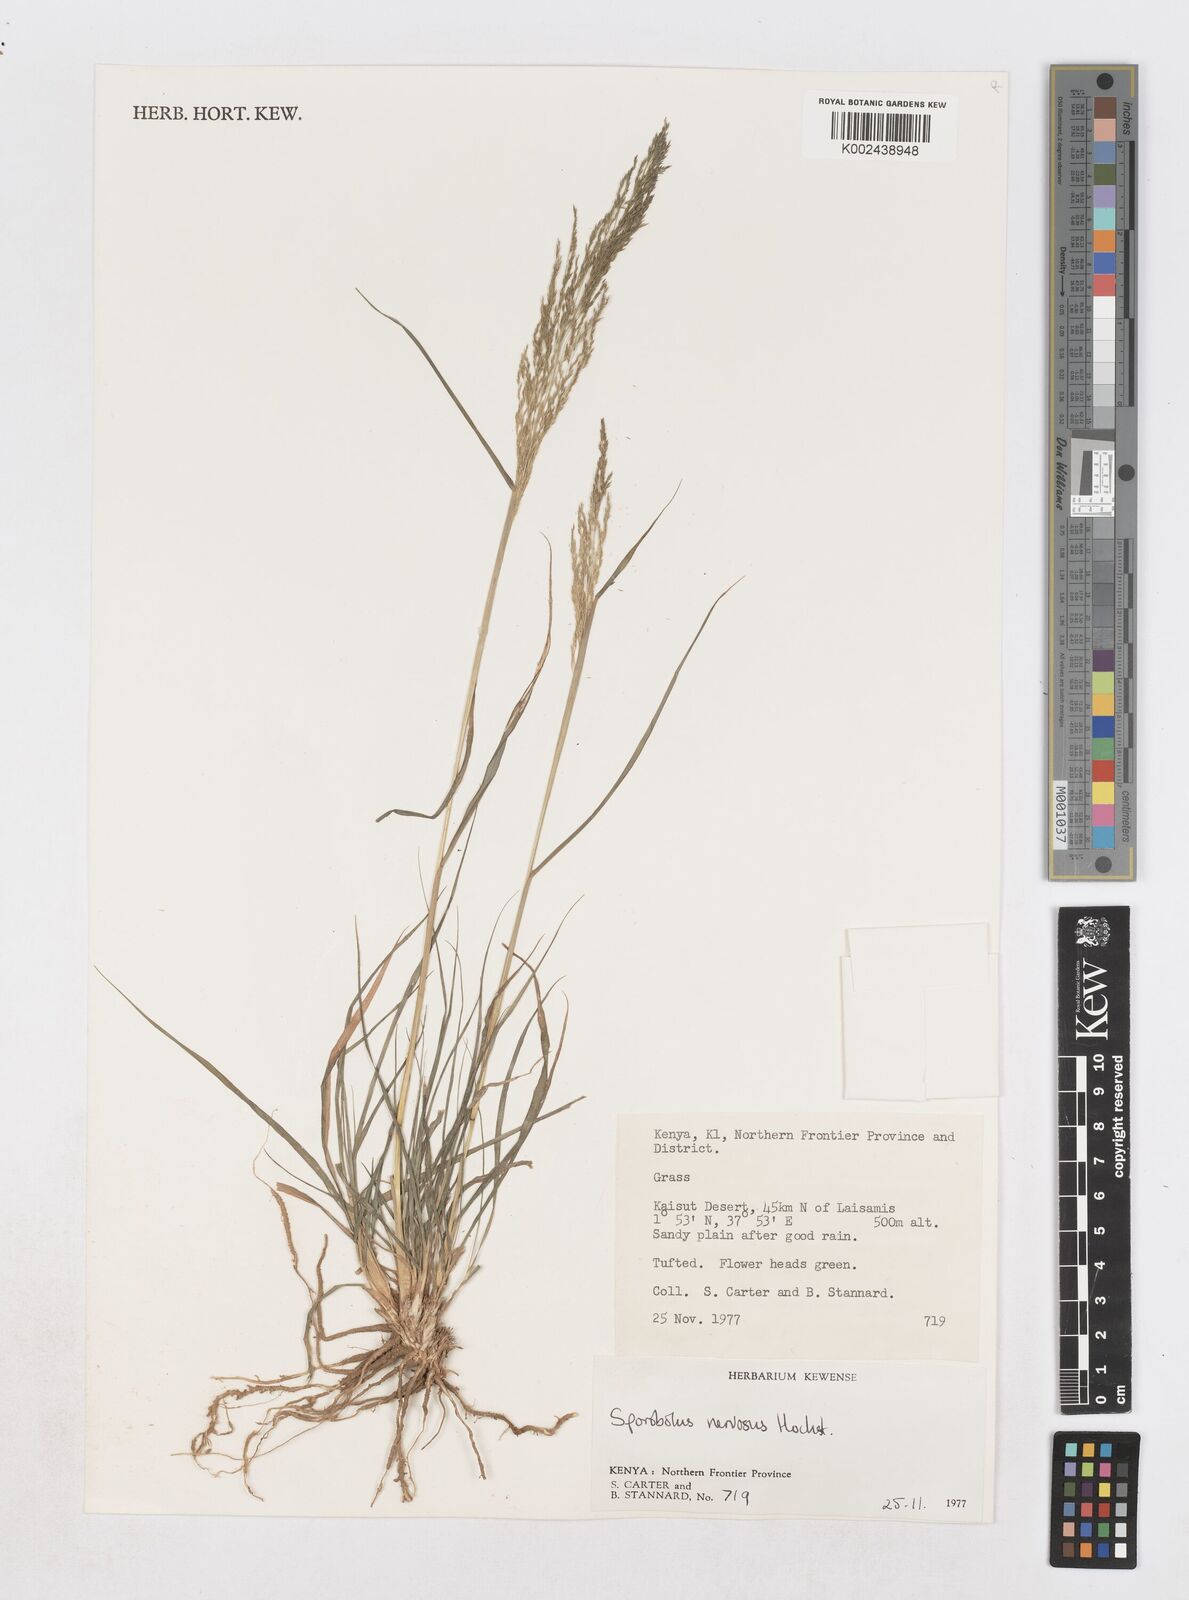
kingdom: Plantae
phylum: Tracheophyta
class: Liliopsida
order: Poales
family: Poaceae
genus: Sporobolus
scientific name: Sporobolus nervosus
